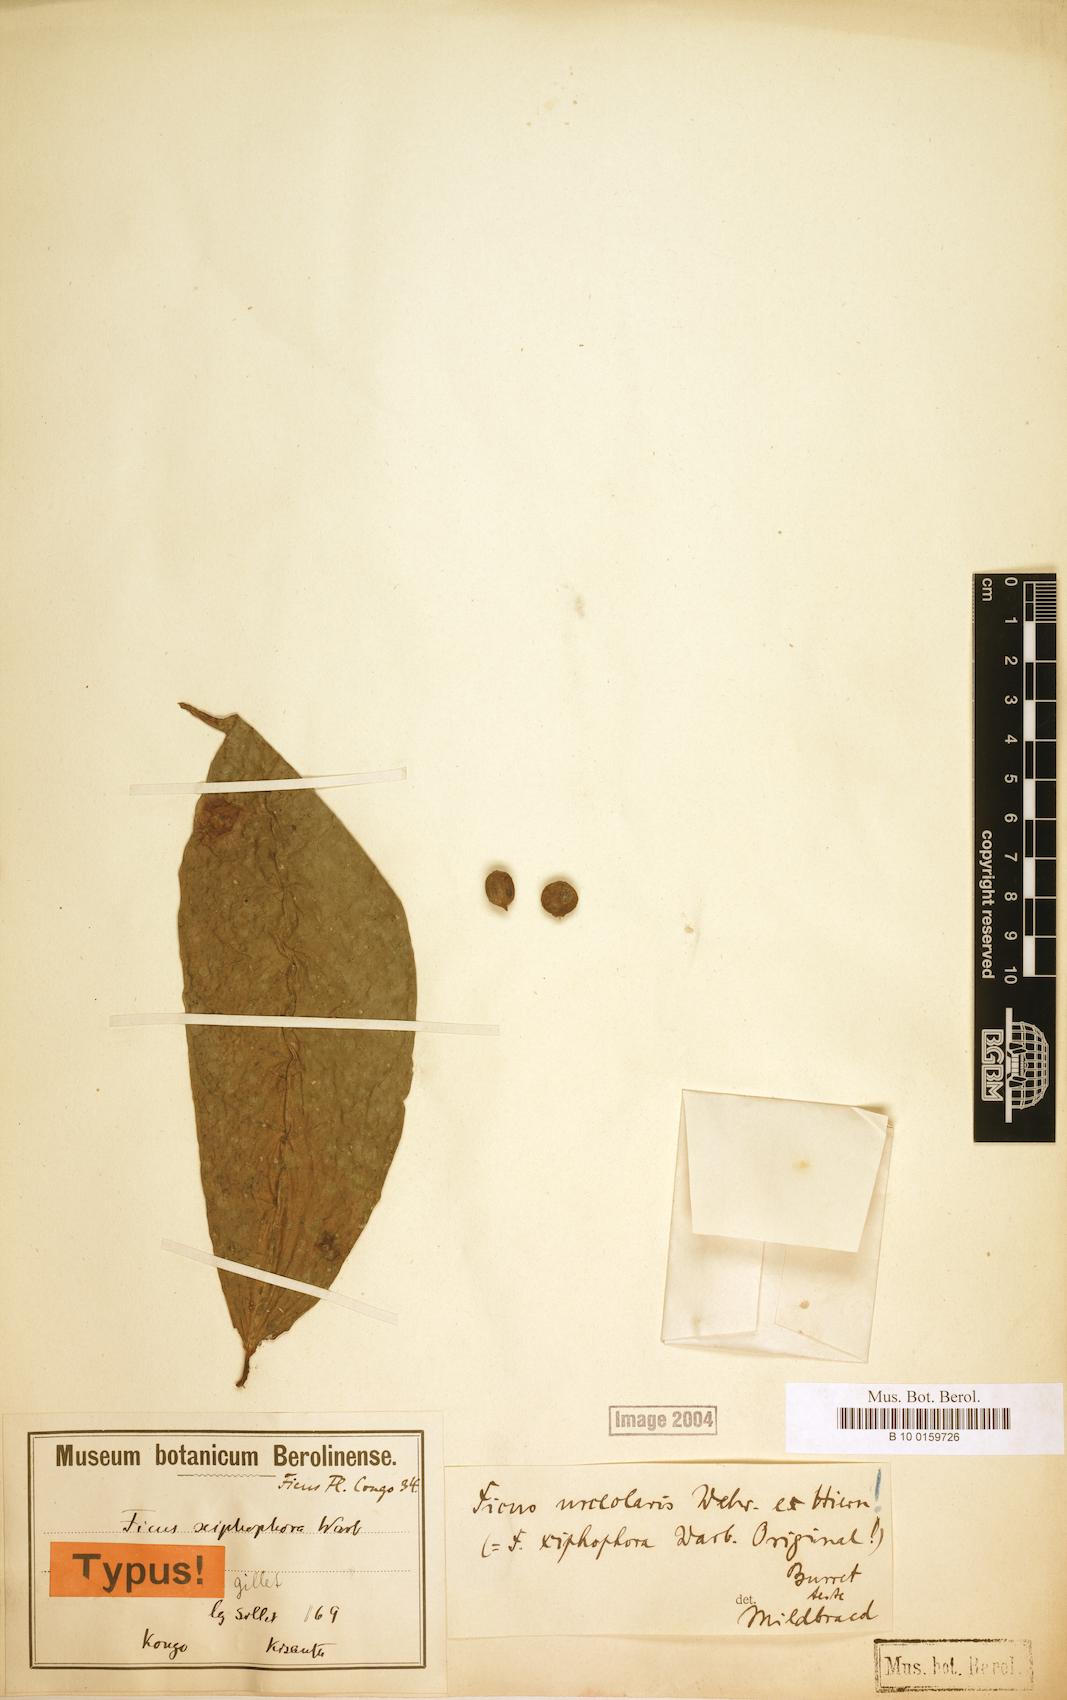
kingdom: Plantae
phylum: Tracheophyta
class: Magnoliopsida
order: Rosales
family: Moraceae
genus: Ficus
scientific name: Ficus asperifolia
